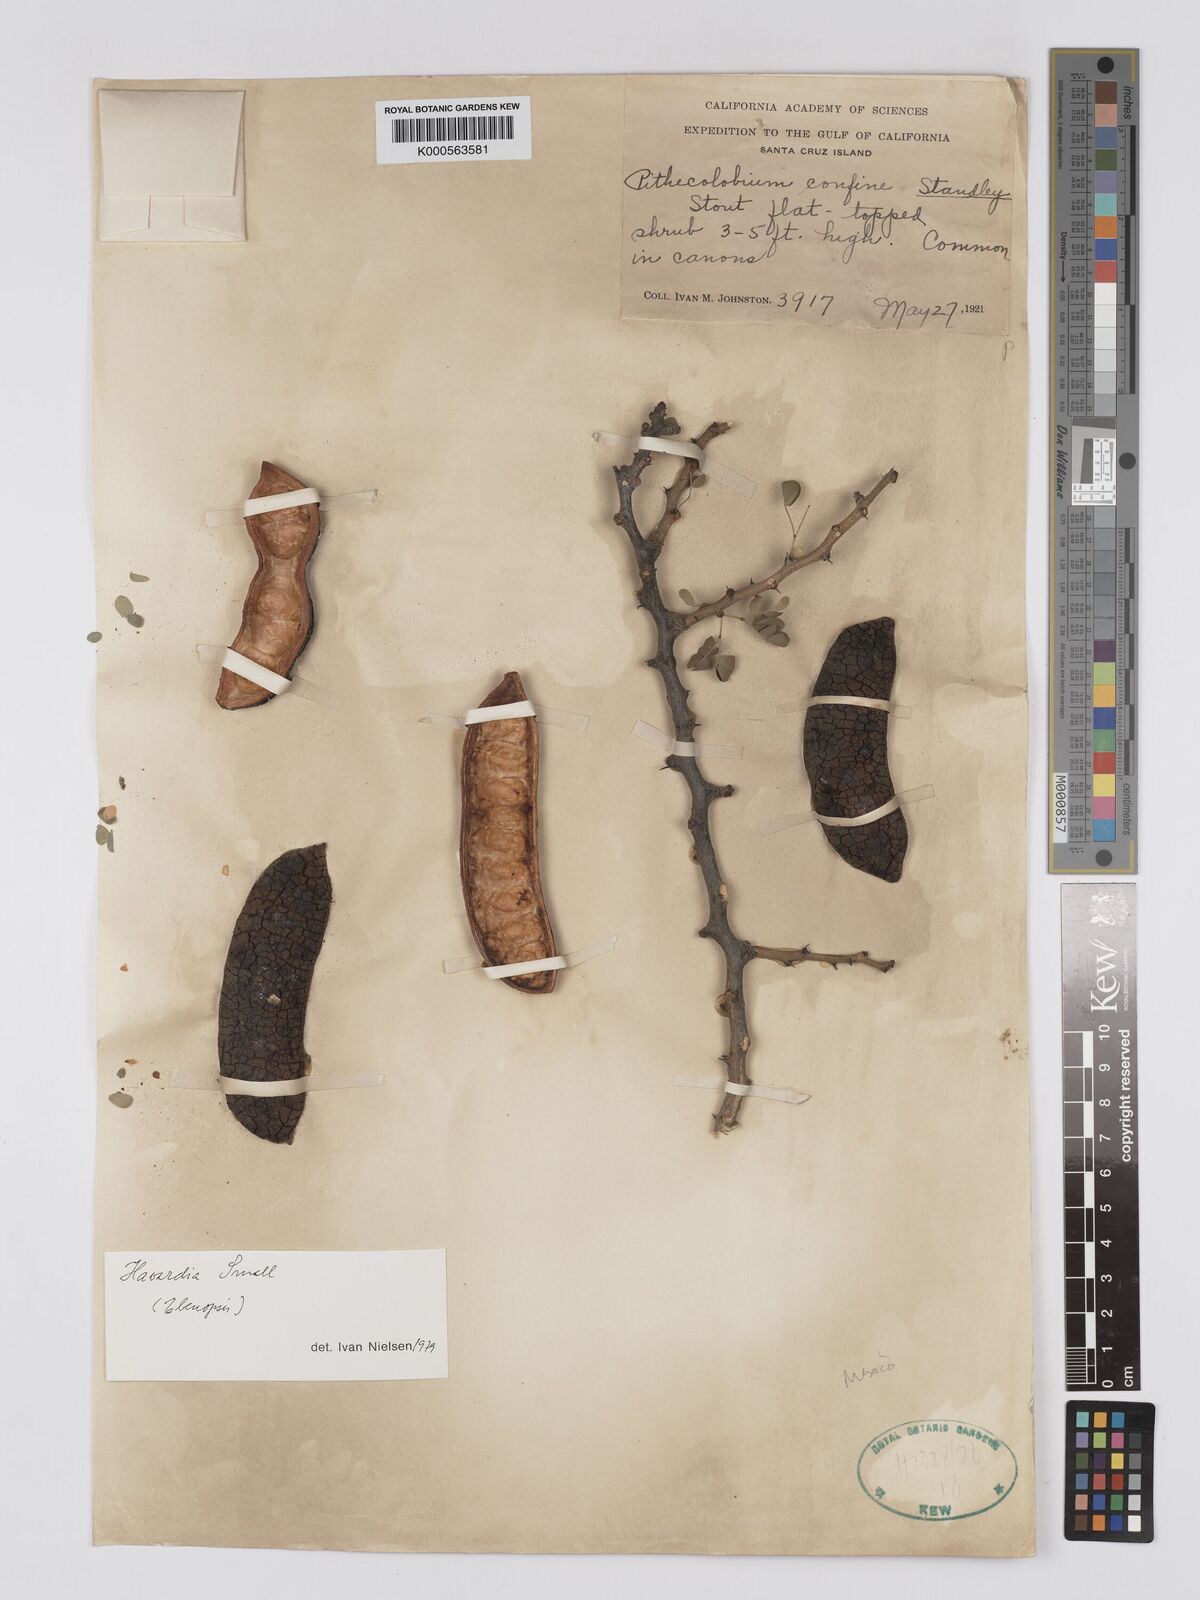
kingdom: Plantae
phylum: Tracheophyta
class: Magnoliopsida
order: Fabales
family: Fabaceae
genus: Chloroleucon
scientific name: Chloroleucon
